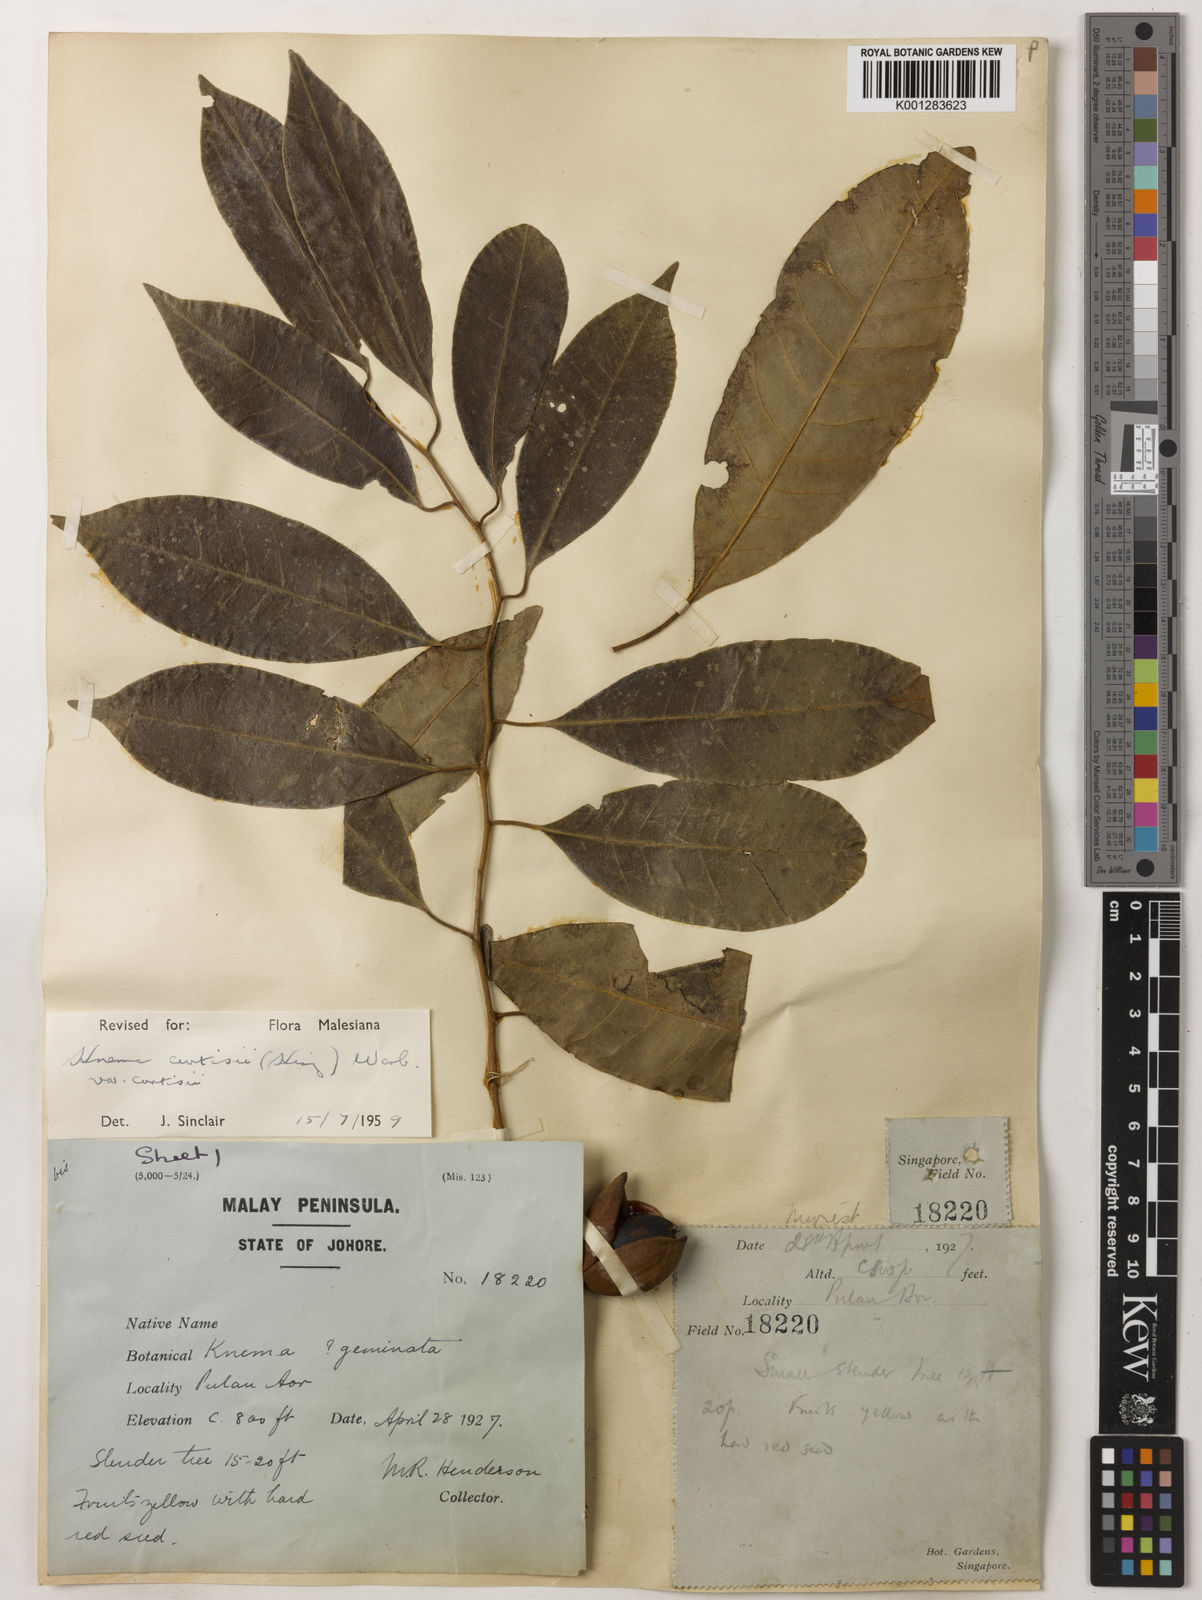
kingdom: Plantae
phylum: Tracheophyta
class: Magnoliopsida
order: Magnoliales
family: Myristicaceae
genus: Knema
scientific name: Knema curtisii
